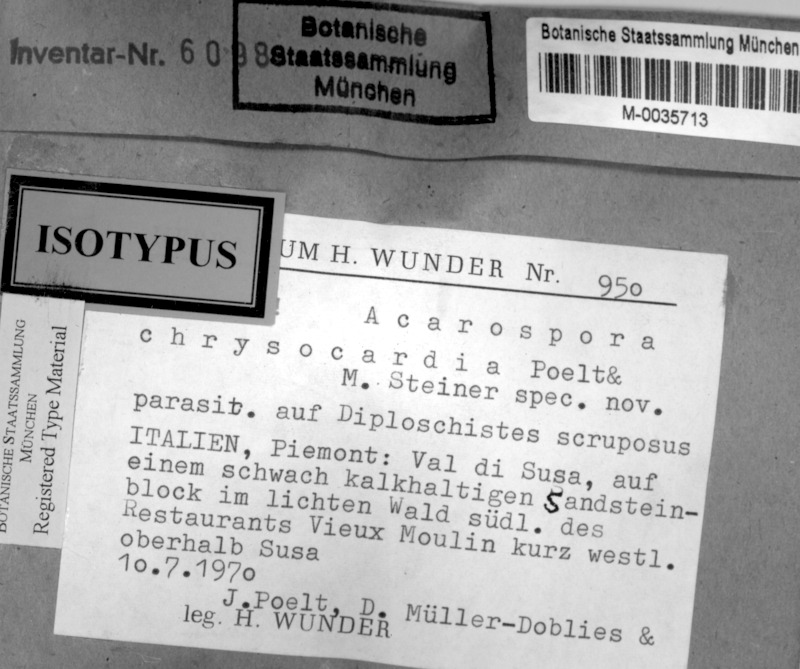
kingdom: Fungi
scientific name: Fungi
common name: Fungi
